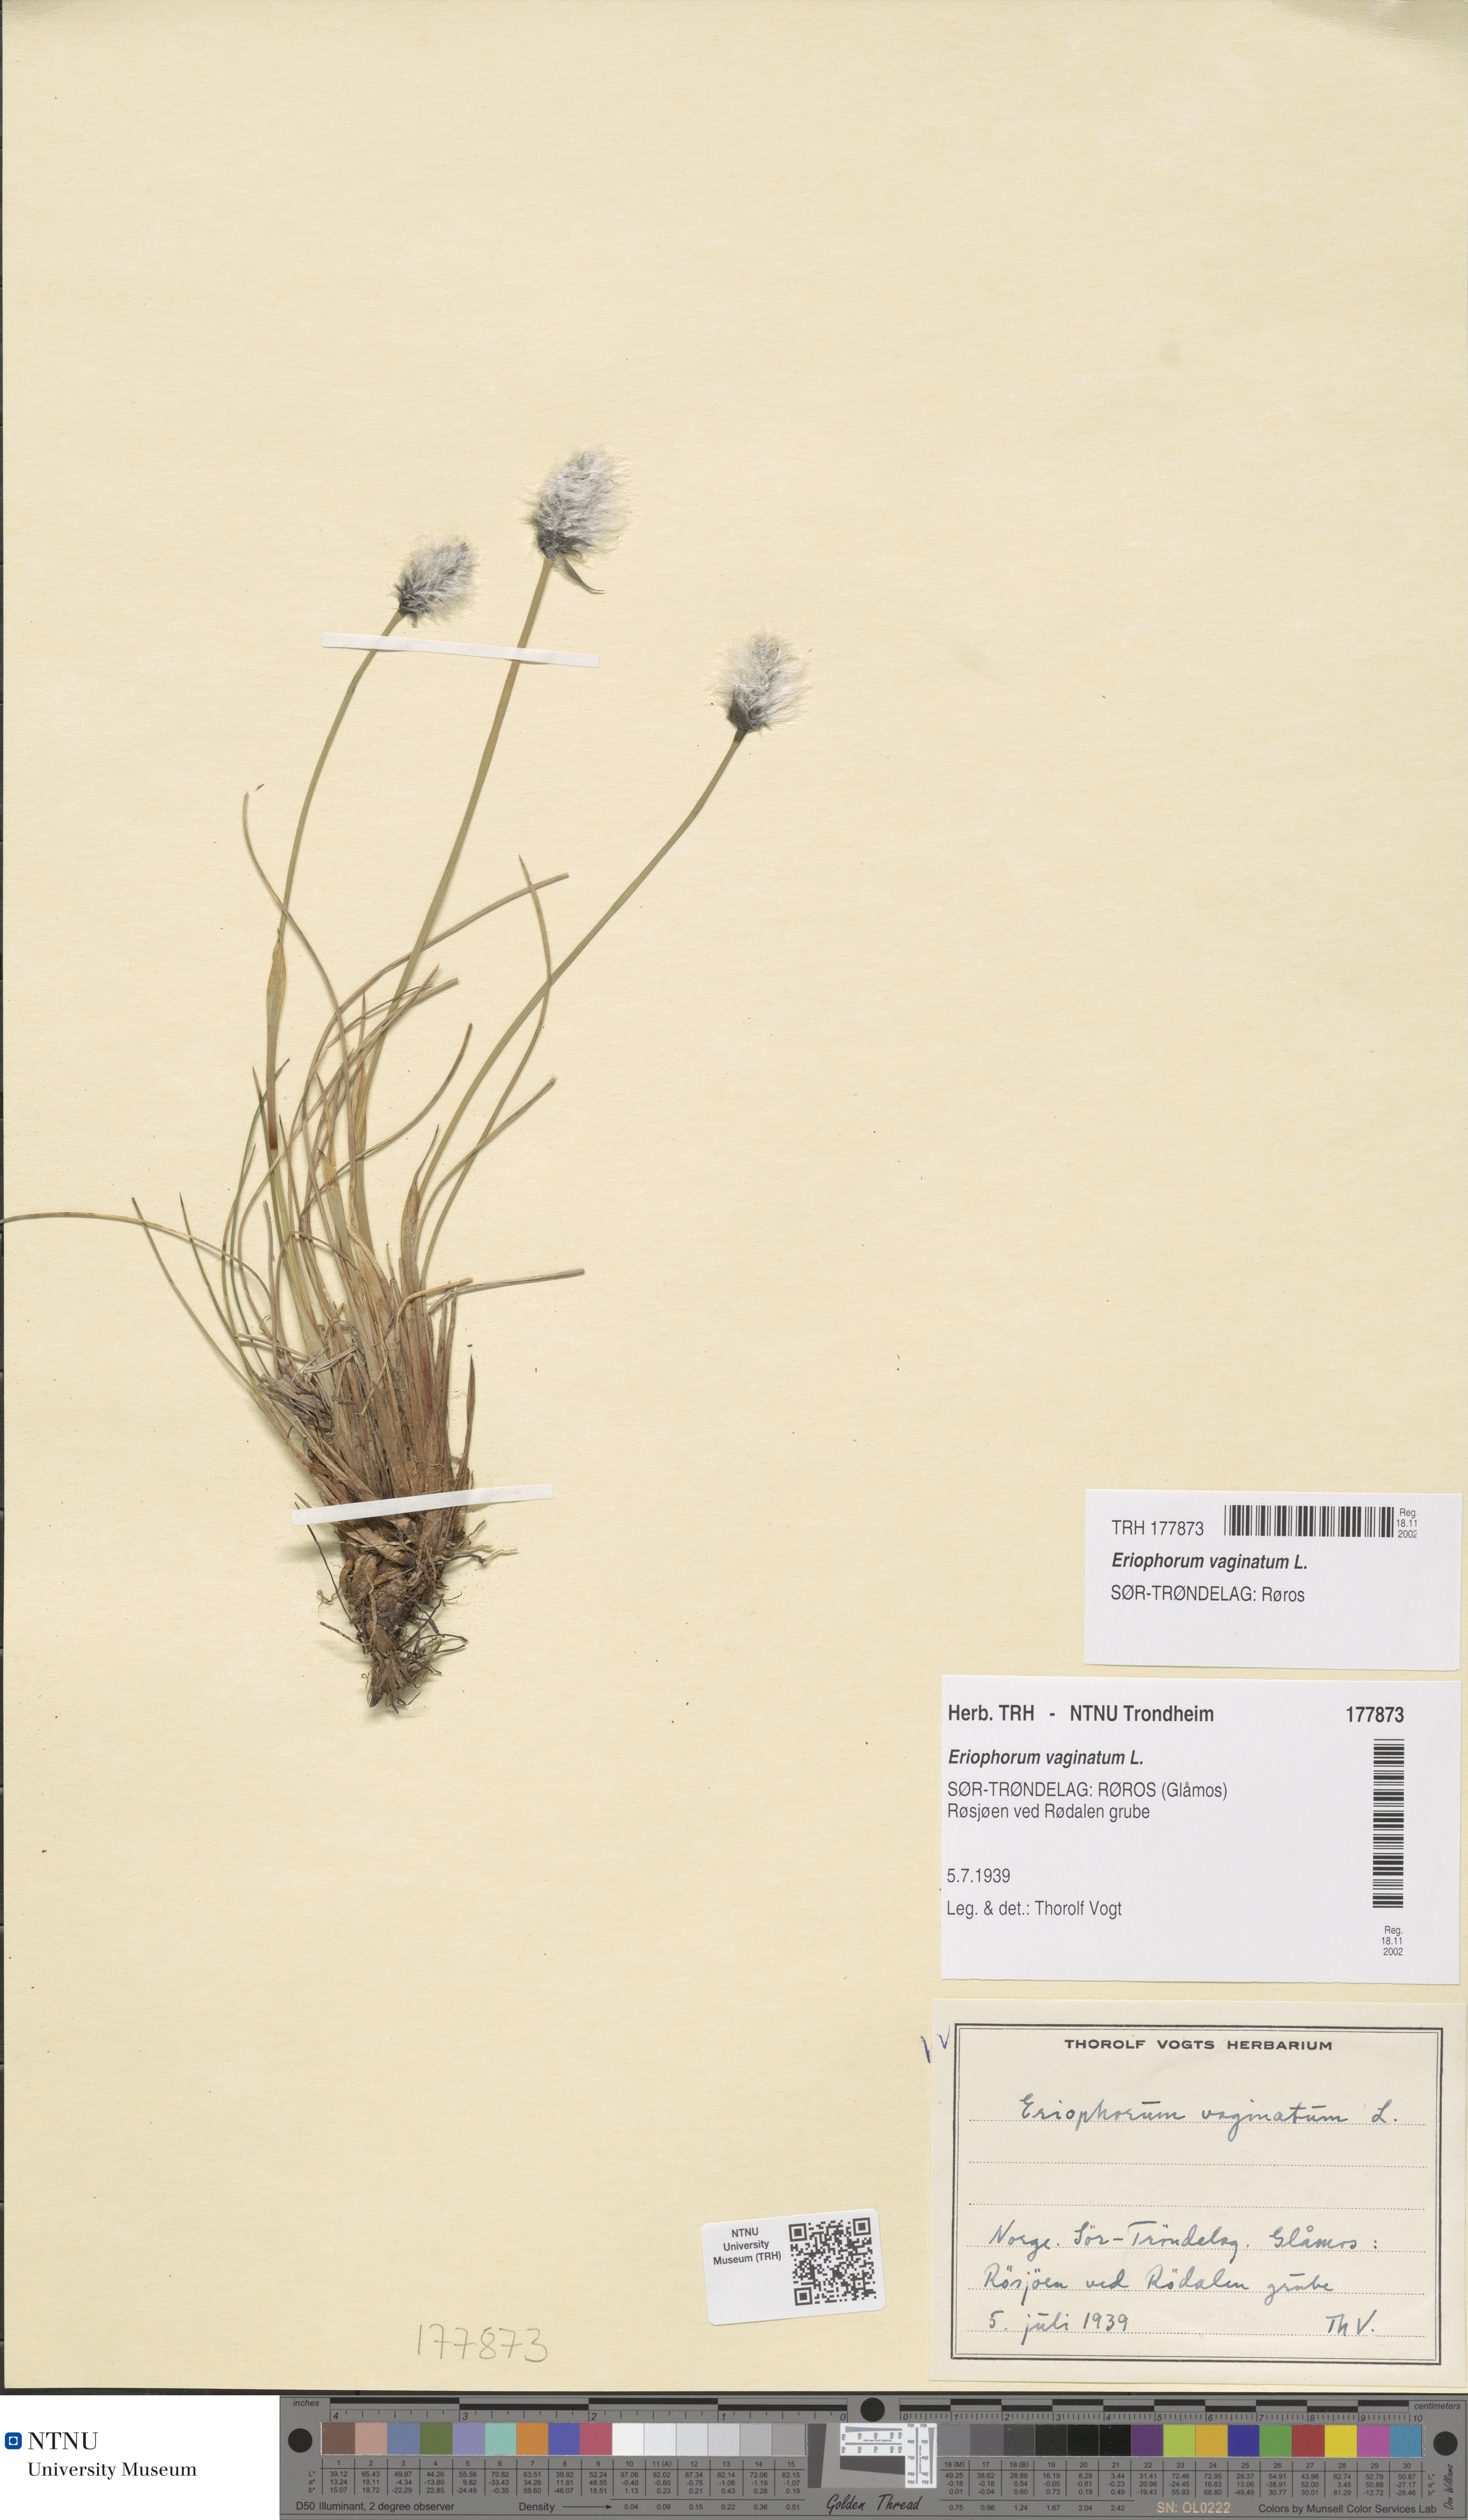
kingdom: Plantae
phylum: Tracheophyta
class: Liliopsida
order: Poales
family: Cyperaceae
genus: Eriophorum
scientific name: Eriophorum vaginatum
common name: Hare's-tail cottongrass
